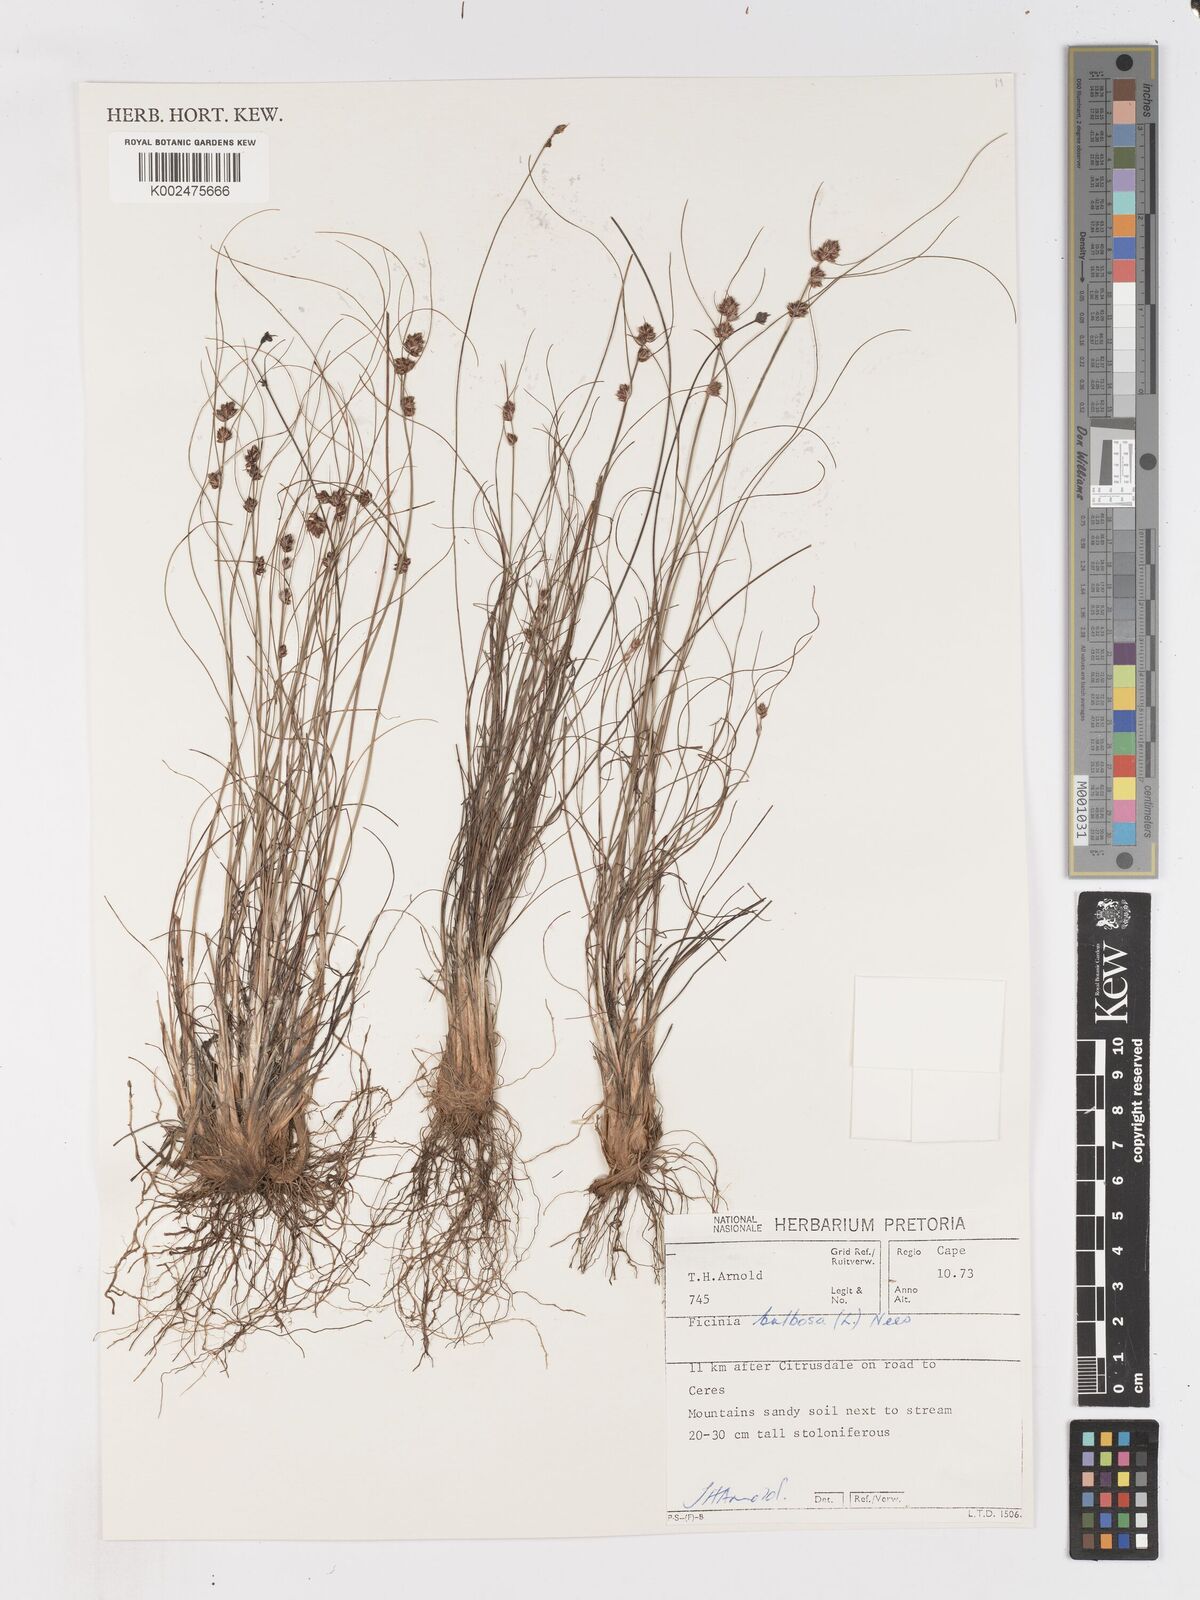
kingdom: Plantae
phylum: Tracheophyta
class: Liliopsida
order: Poales
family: Cyperaceae
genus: Ficinia
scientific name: Ficinia bulbosa
